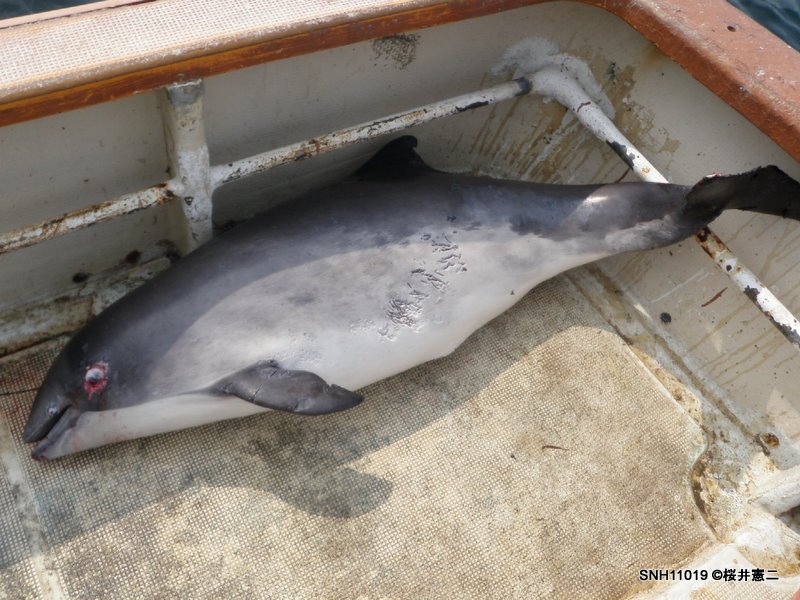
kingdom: Animalia
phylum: Chordata
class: Mammalia
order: Cetacea
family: Phocoenidae
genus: Phocoena
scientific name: Phocoena phocoena
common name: Harbour porpoise
